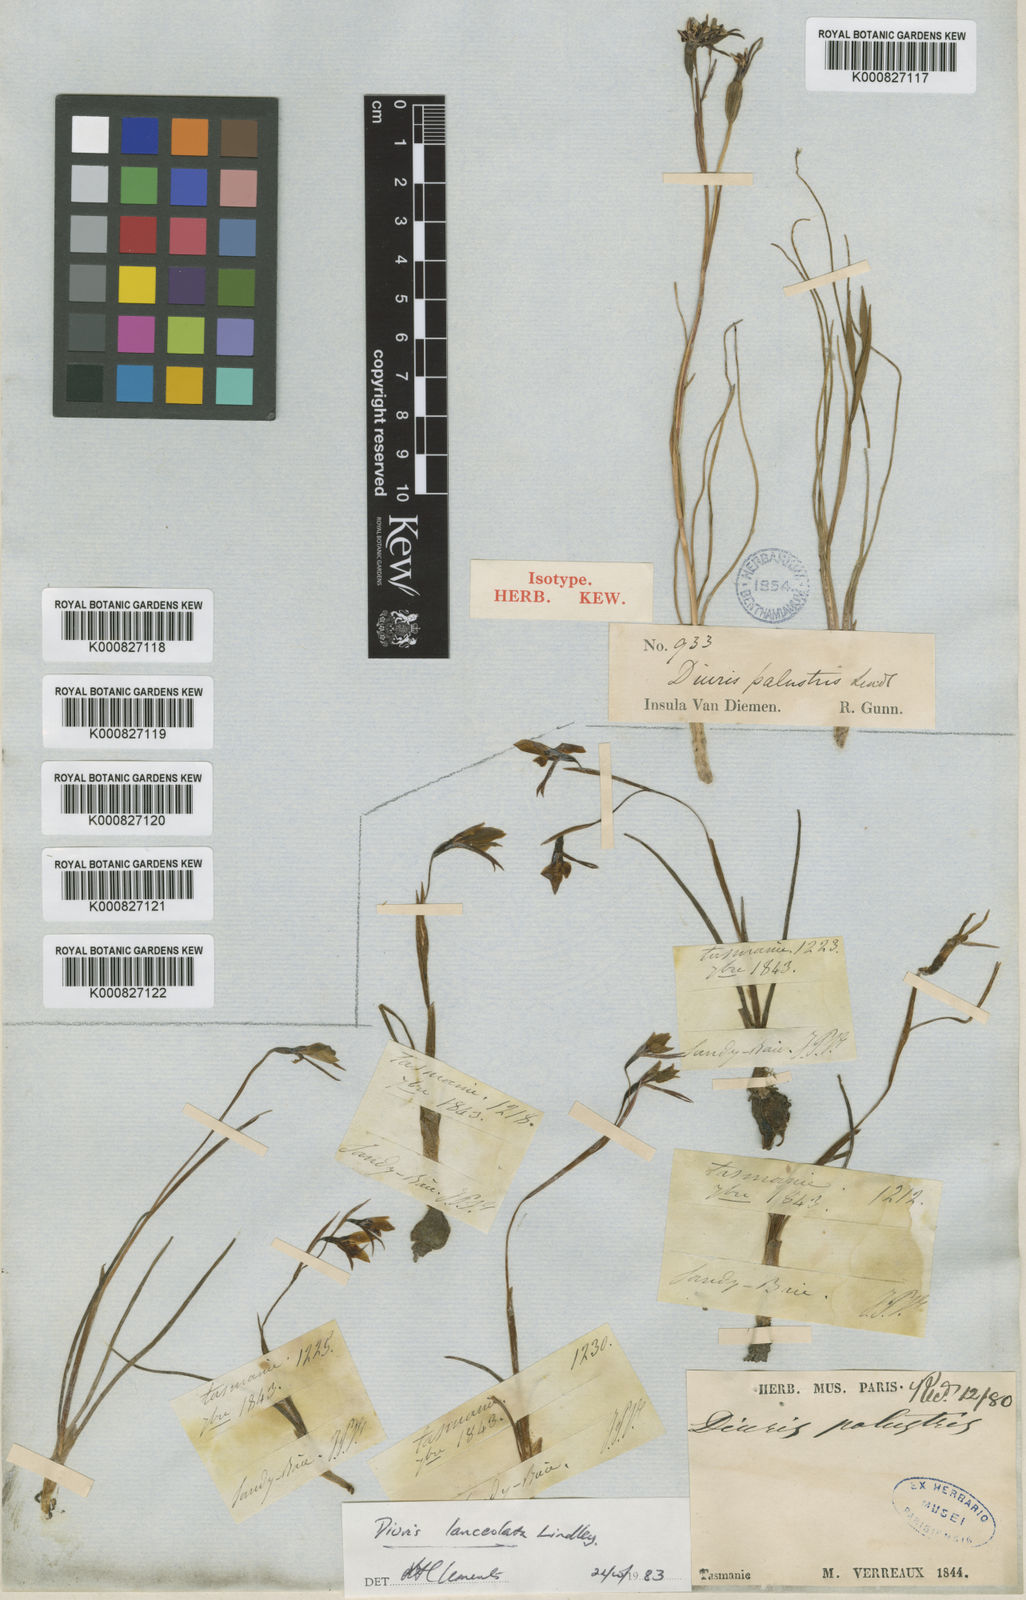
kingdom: Plantae
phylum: Tracheophyta
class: Liliopsida
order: Asparagales
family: Orchidaceae
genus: Diuris
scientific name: Diuris palustris
